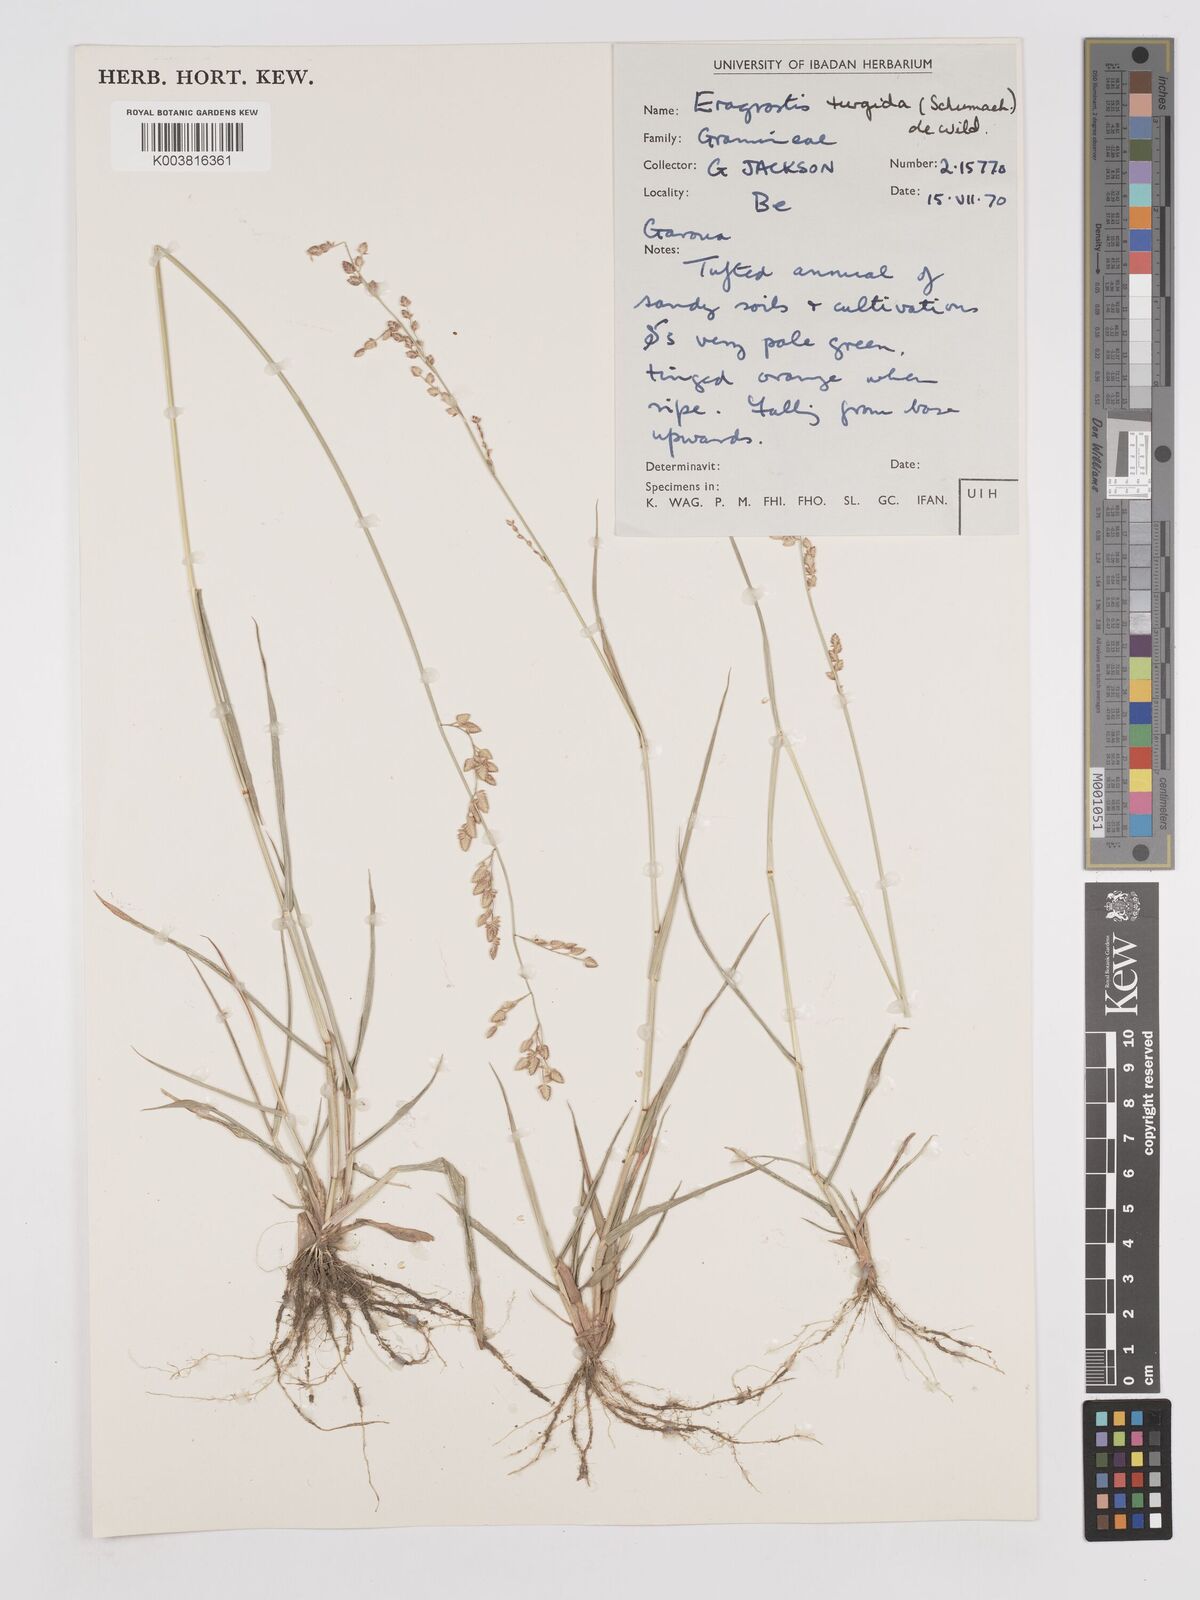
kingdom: Plantae
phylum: Tracheophyta
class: Liliopsida
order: Poales
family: Poaceae
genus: Eragrostis
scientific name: Eragrostis turgida
